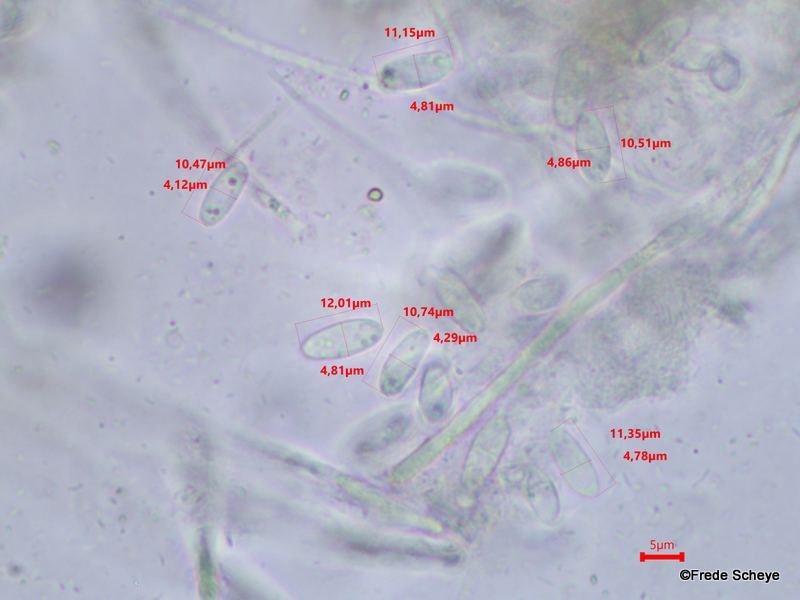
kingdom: Fungi
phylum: Ascomycota
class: Leotiomycetes
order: Helotiales
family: Pezizellaceae
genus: Calycina
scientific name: Calycina citrina
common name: almindelig gulskive
